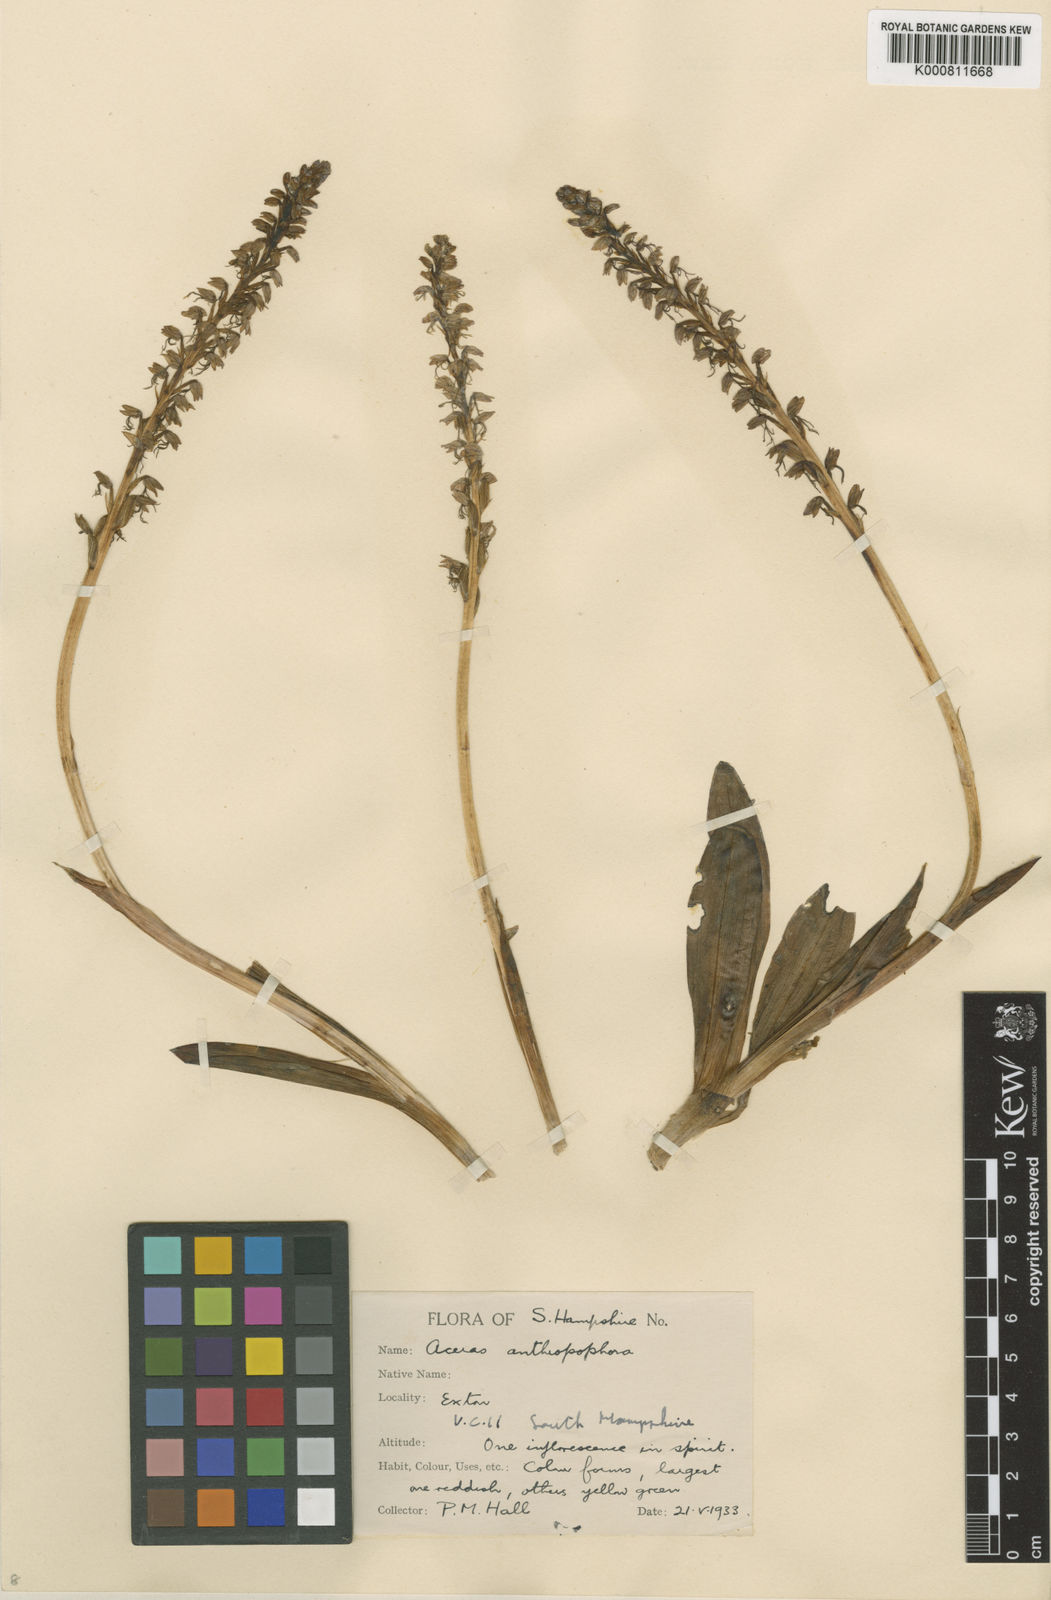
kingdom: Plantae
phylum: Tracheophyta
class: Liliopsida
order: Asparagales
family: Orchidaceae
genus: Orchis
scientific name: Orchis
